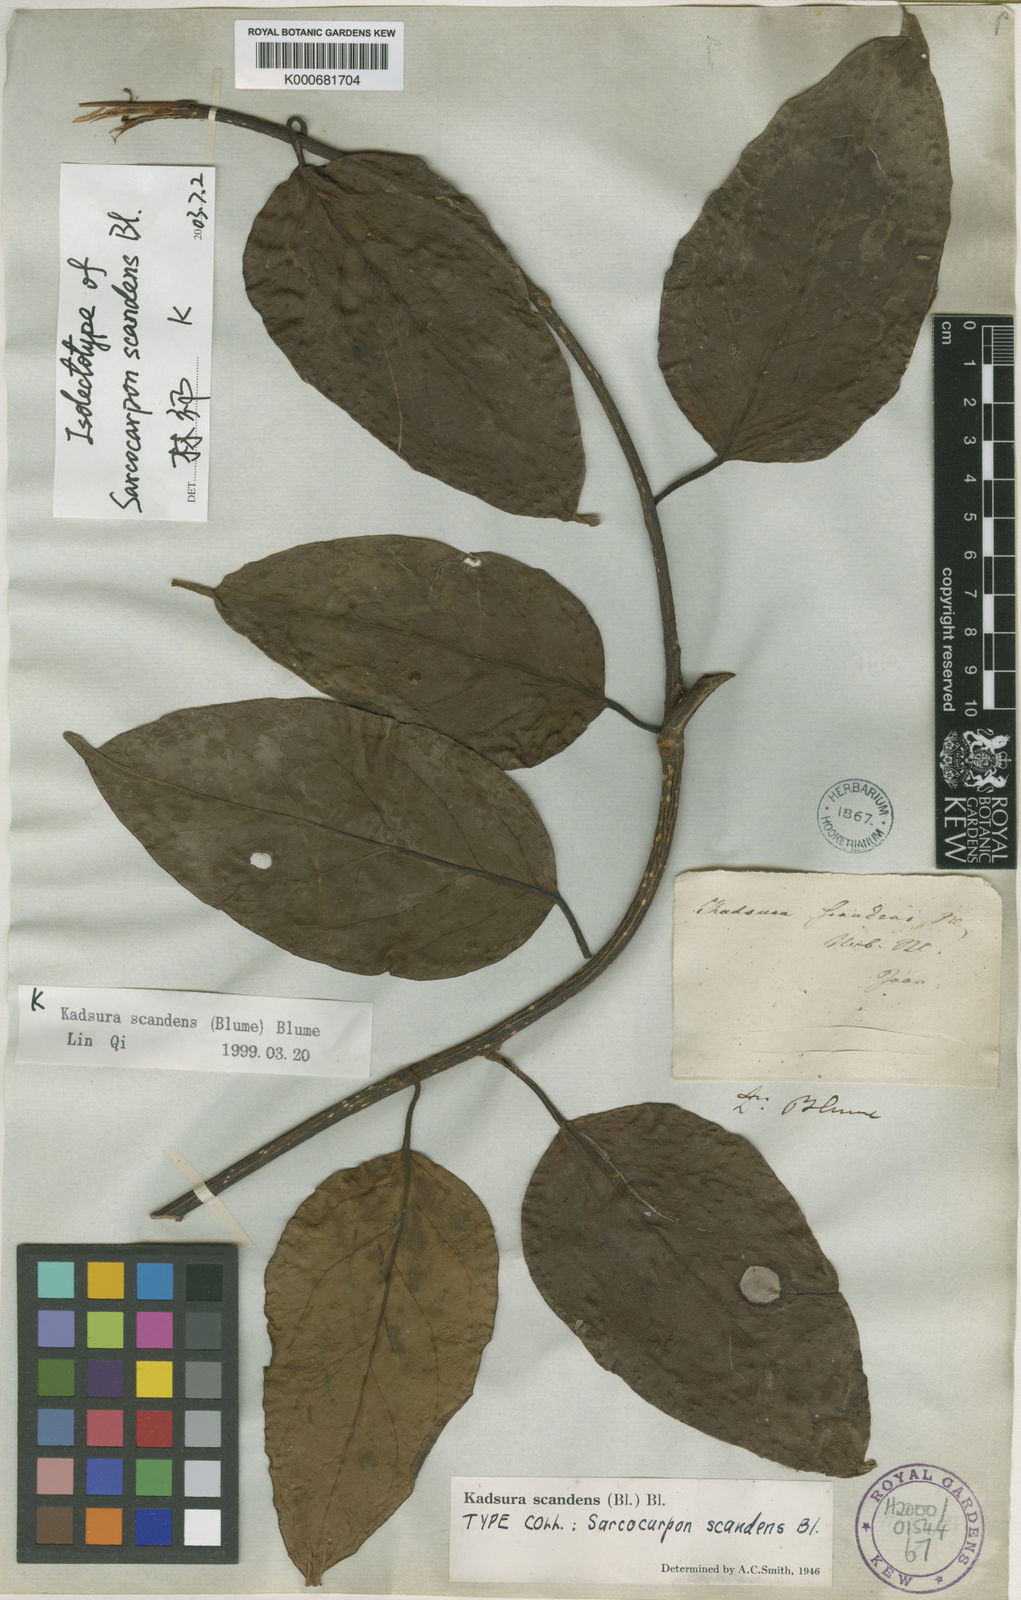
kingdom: Plantae
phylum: Tracheophyta
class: Magnoliopsida
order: Austrobaileyales
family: Schisandraceae
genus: Kadsura
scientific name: Kadsura scandens
